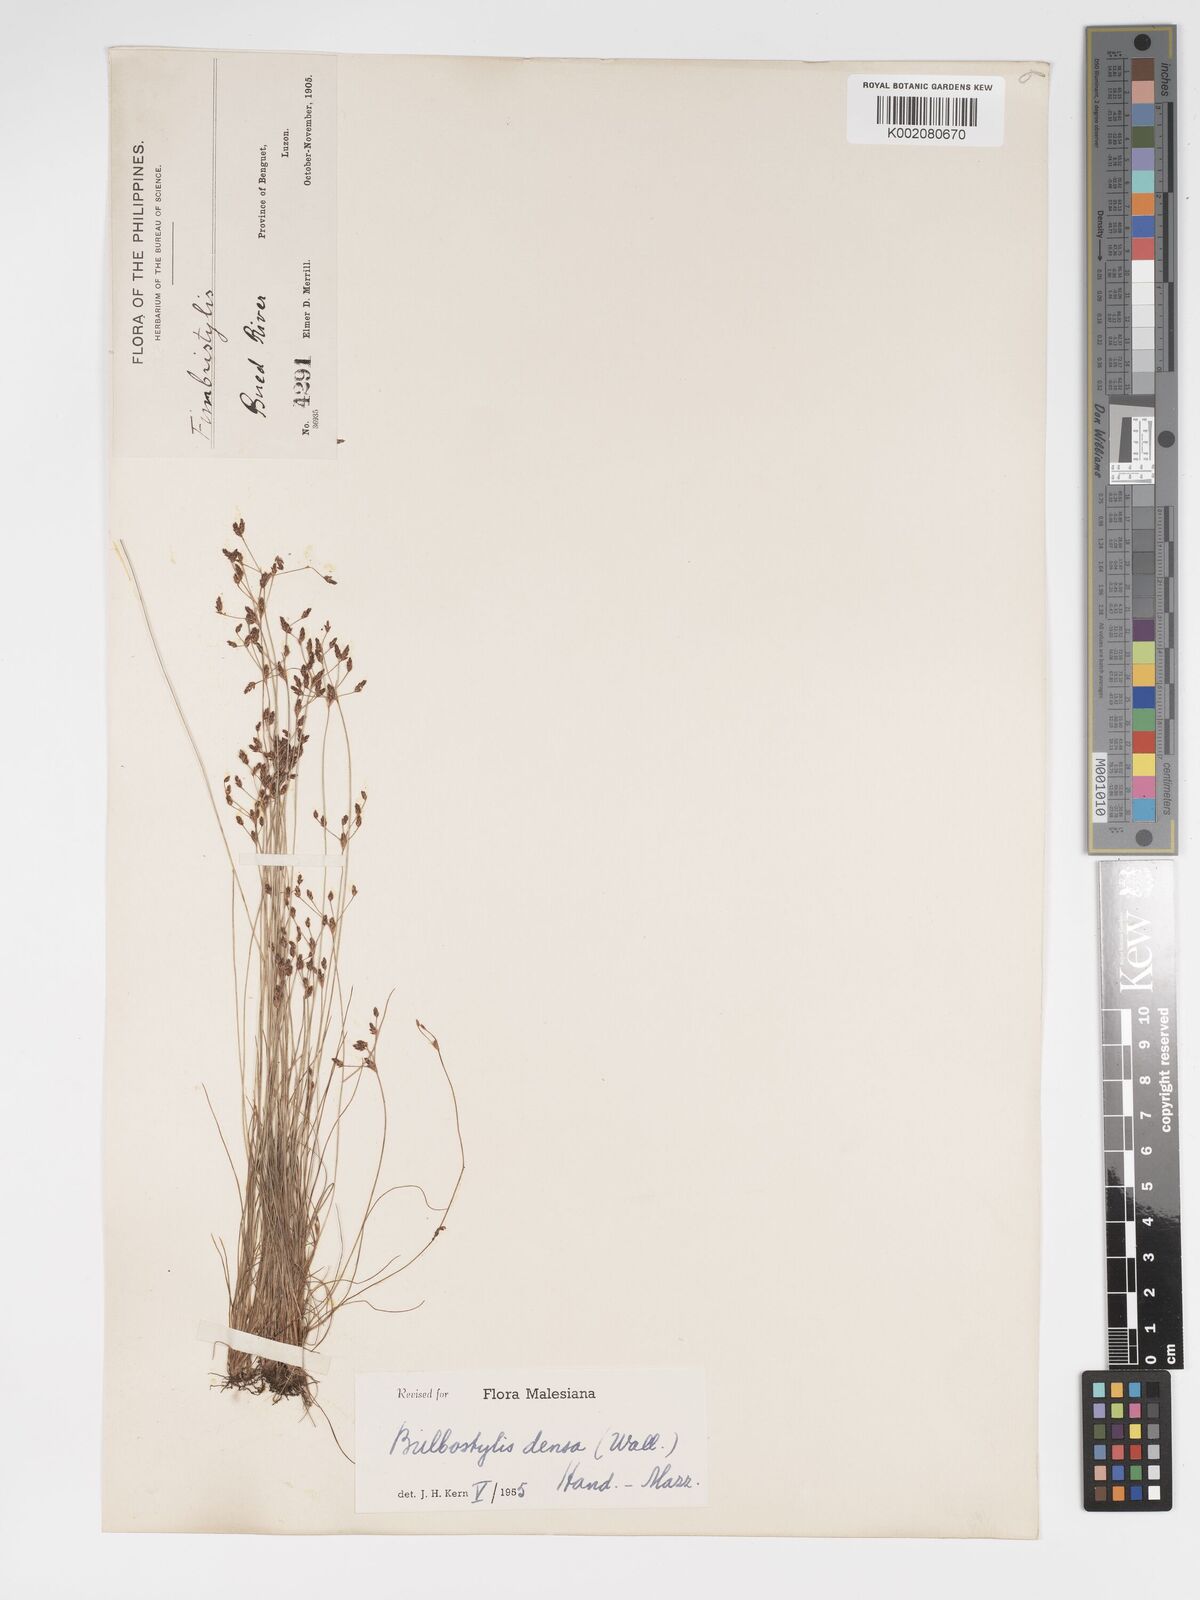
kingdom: Plantae
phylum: Tracheophyta
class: Liliopsida
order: Poales
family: Cyperaceae
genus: Bulbostylis
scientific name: Bulbostylis densa
